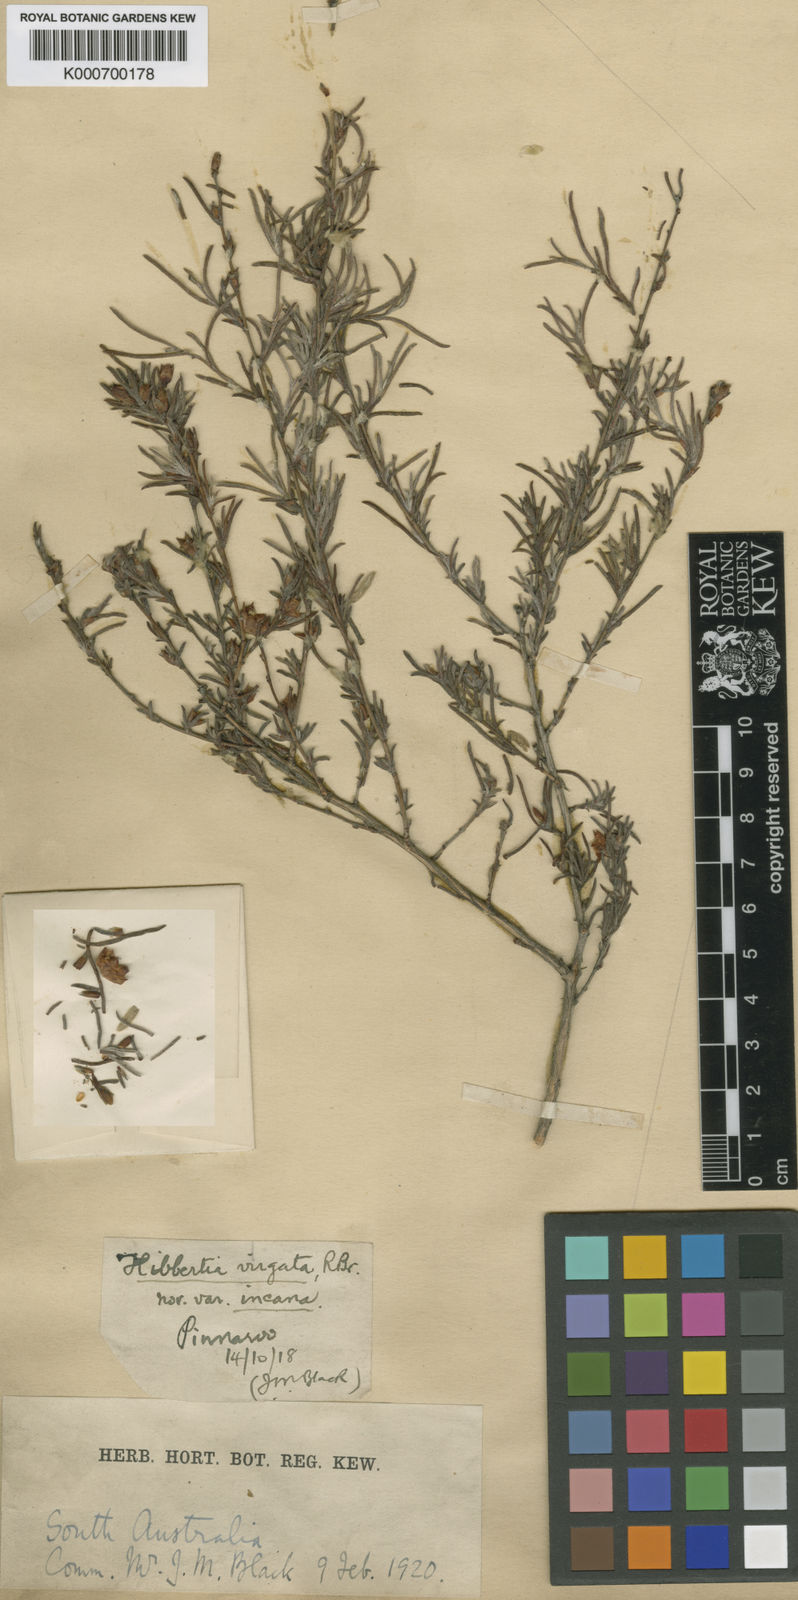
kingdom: Plantae
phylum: Tracheophyta
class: Magnoliopsida
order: Dilleniales
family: Dilleniaceae
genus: Hibbertia
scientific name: Hibbertia virgata
